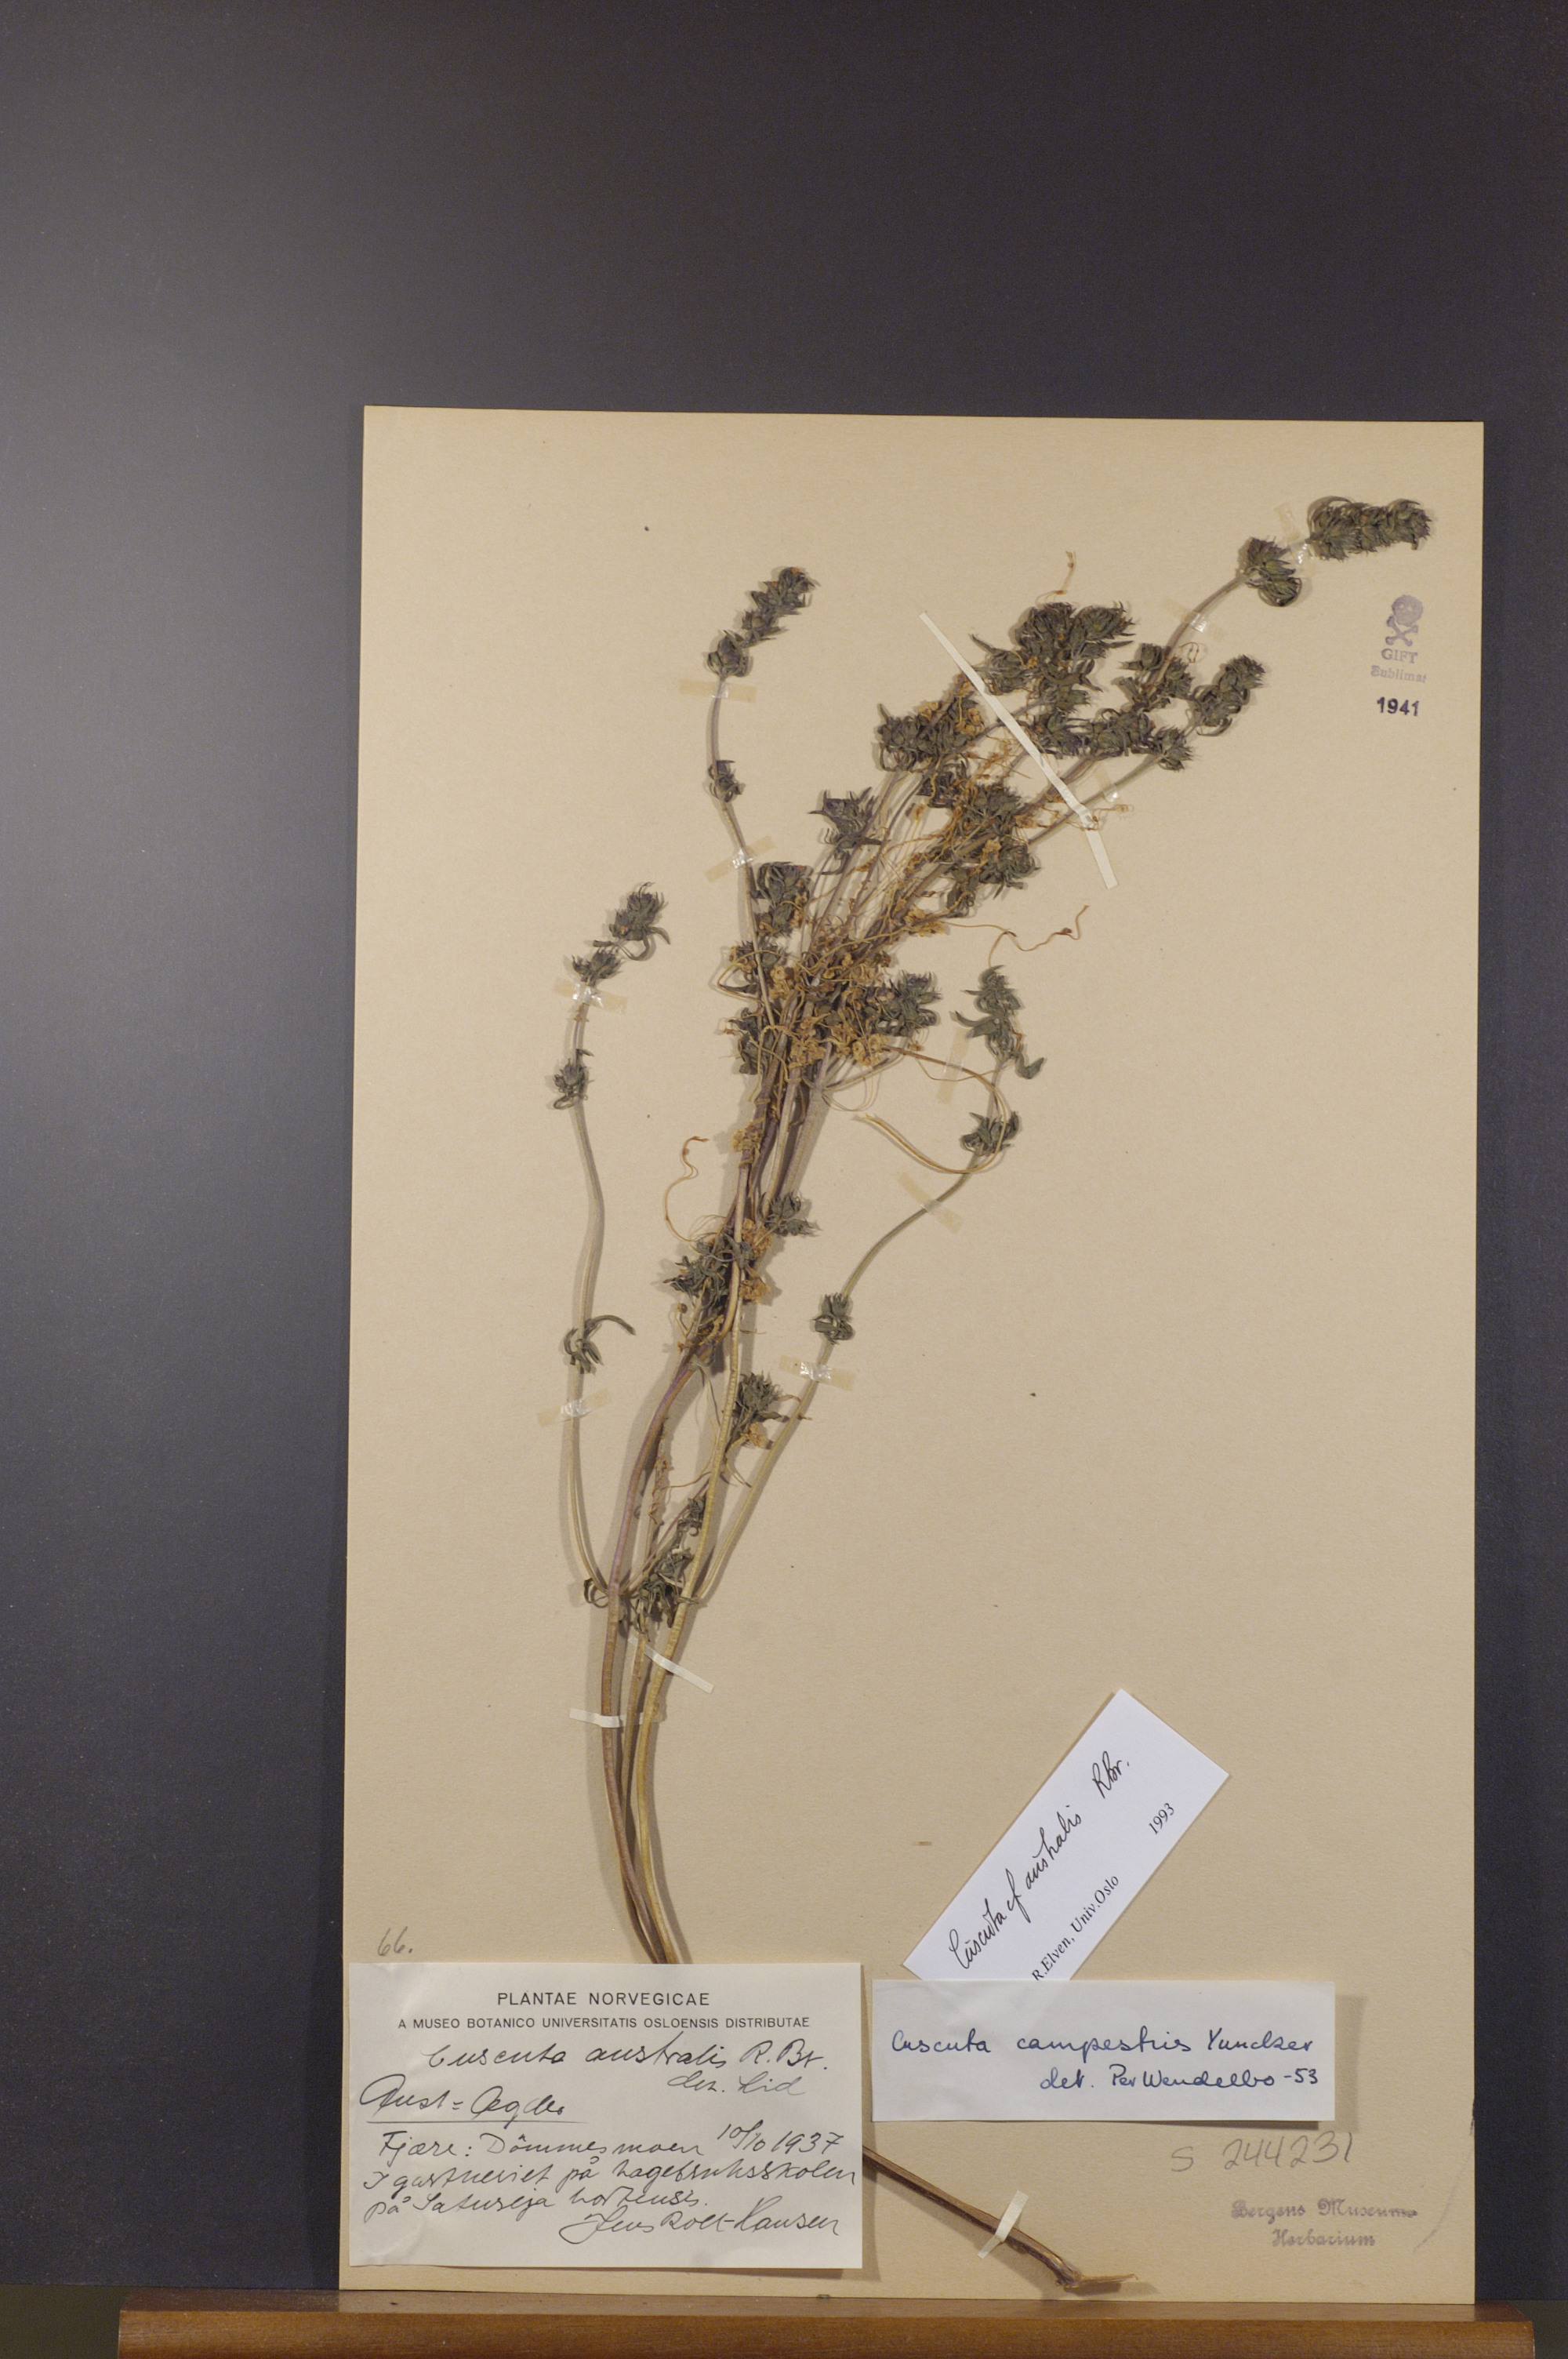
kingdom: Plantae
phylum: Tracheophyta
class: Magnoliopsida
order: Solanales
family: Convolvulaceae
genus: Cuscuta
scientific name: Cuscuta australis
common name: Australian dodder
